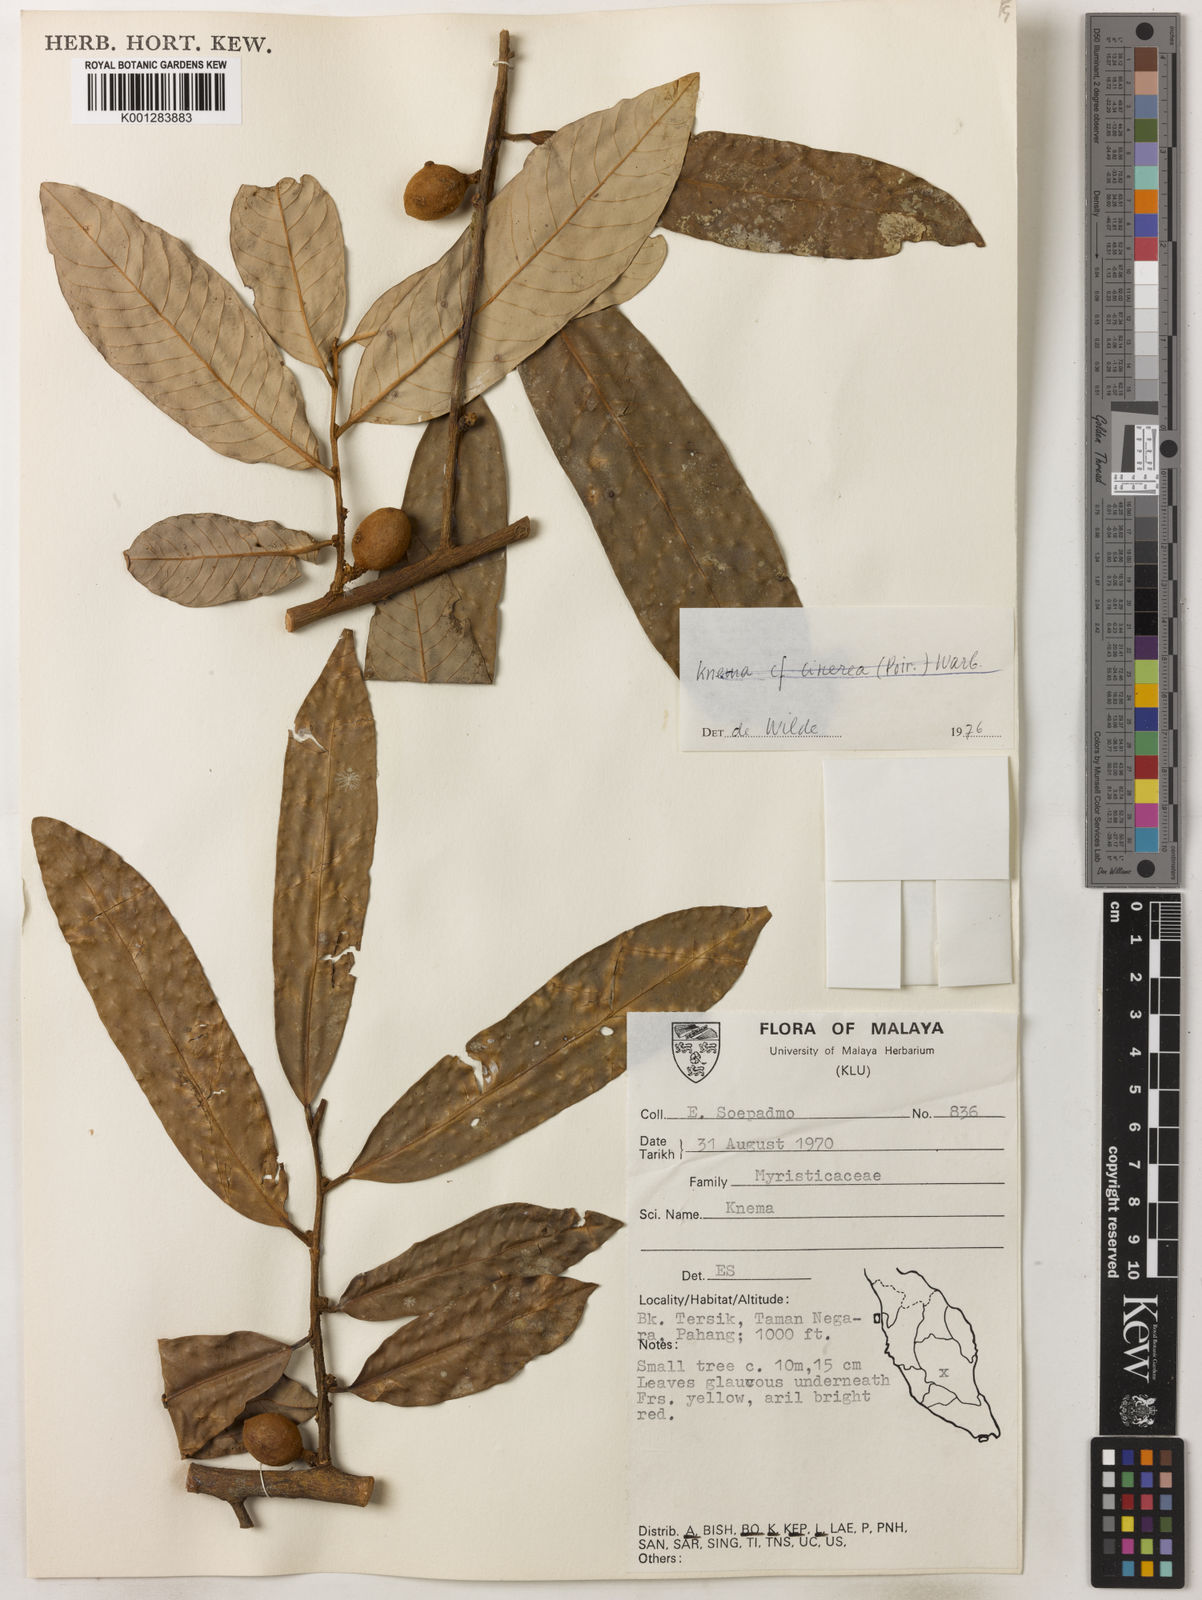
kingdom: Plantae
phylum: Tracheophyta
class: Magnoliopsida
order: Magnoliales
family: Myristicaceae
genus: Knema
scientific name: Knema cinerea
